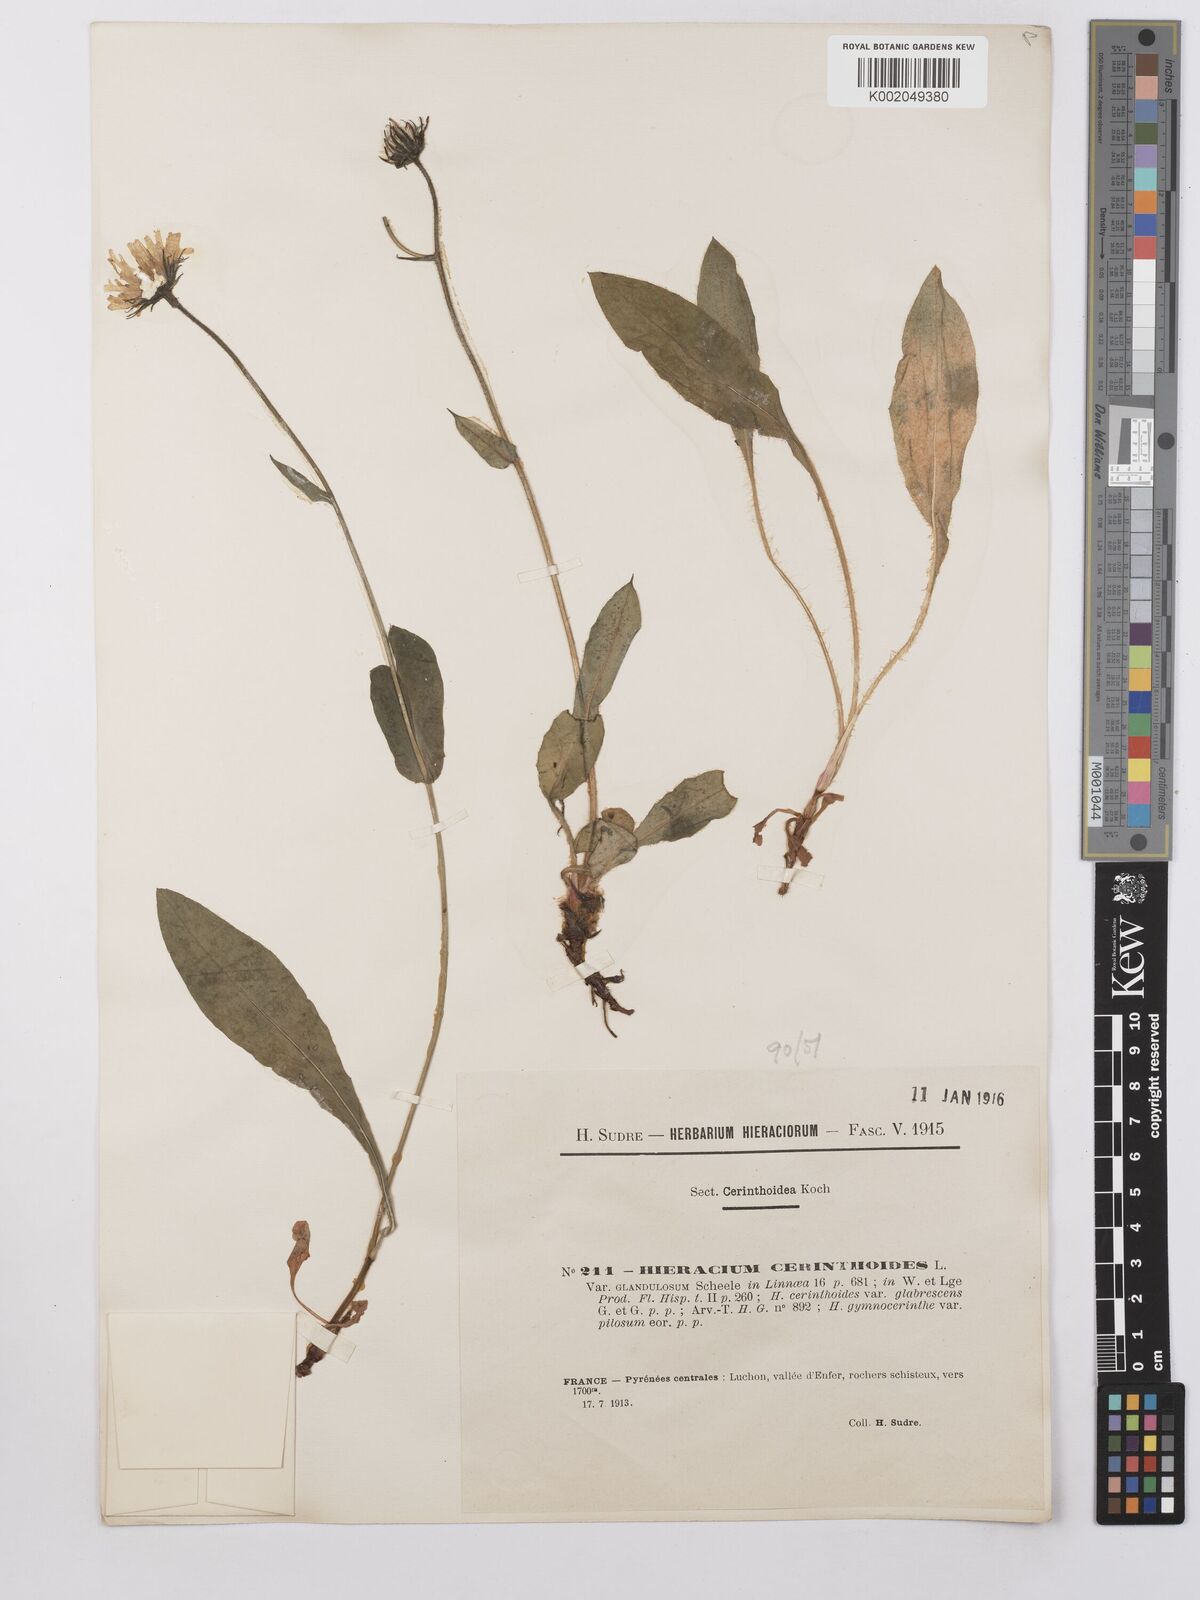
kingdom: Plantae
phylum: Tracheophyta
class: Magnoliopsida
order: Asterales
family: Asteraceae
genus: Hieracium
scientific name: Hieracium cerinthoides
